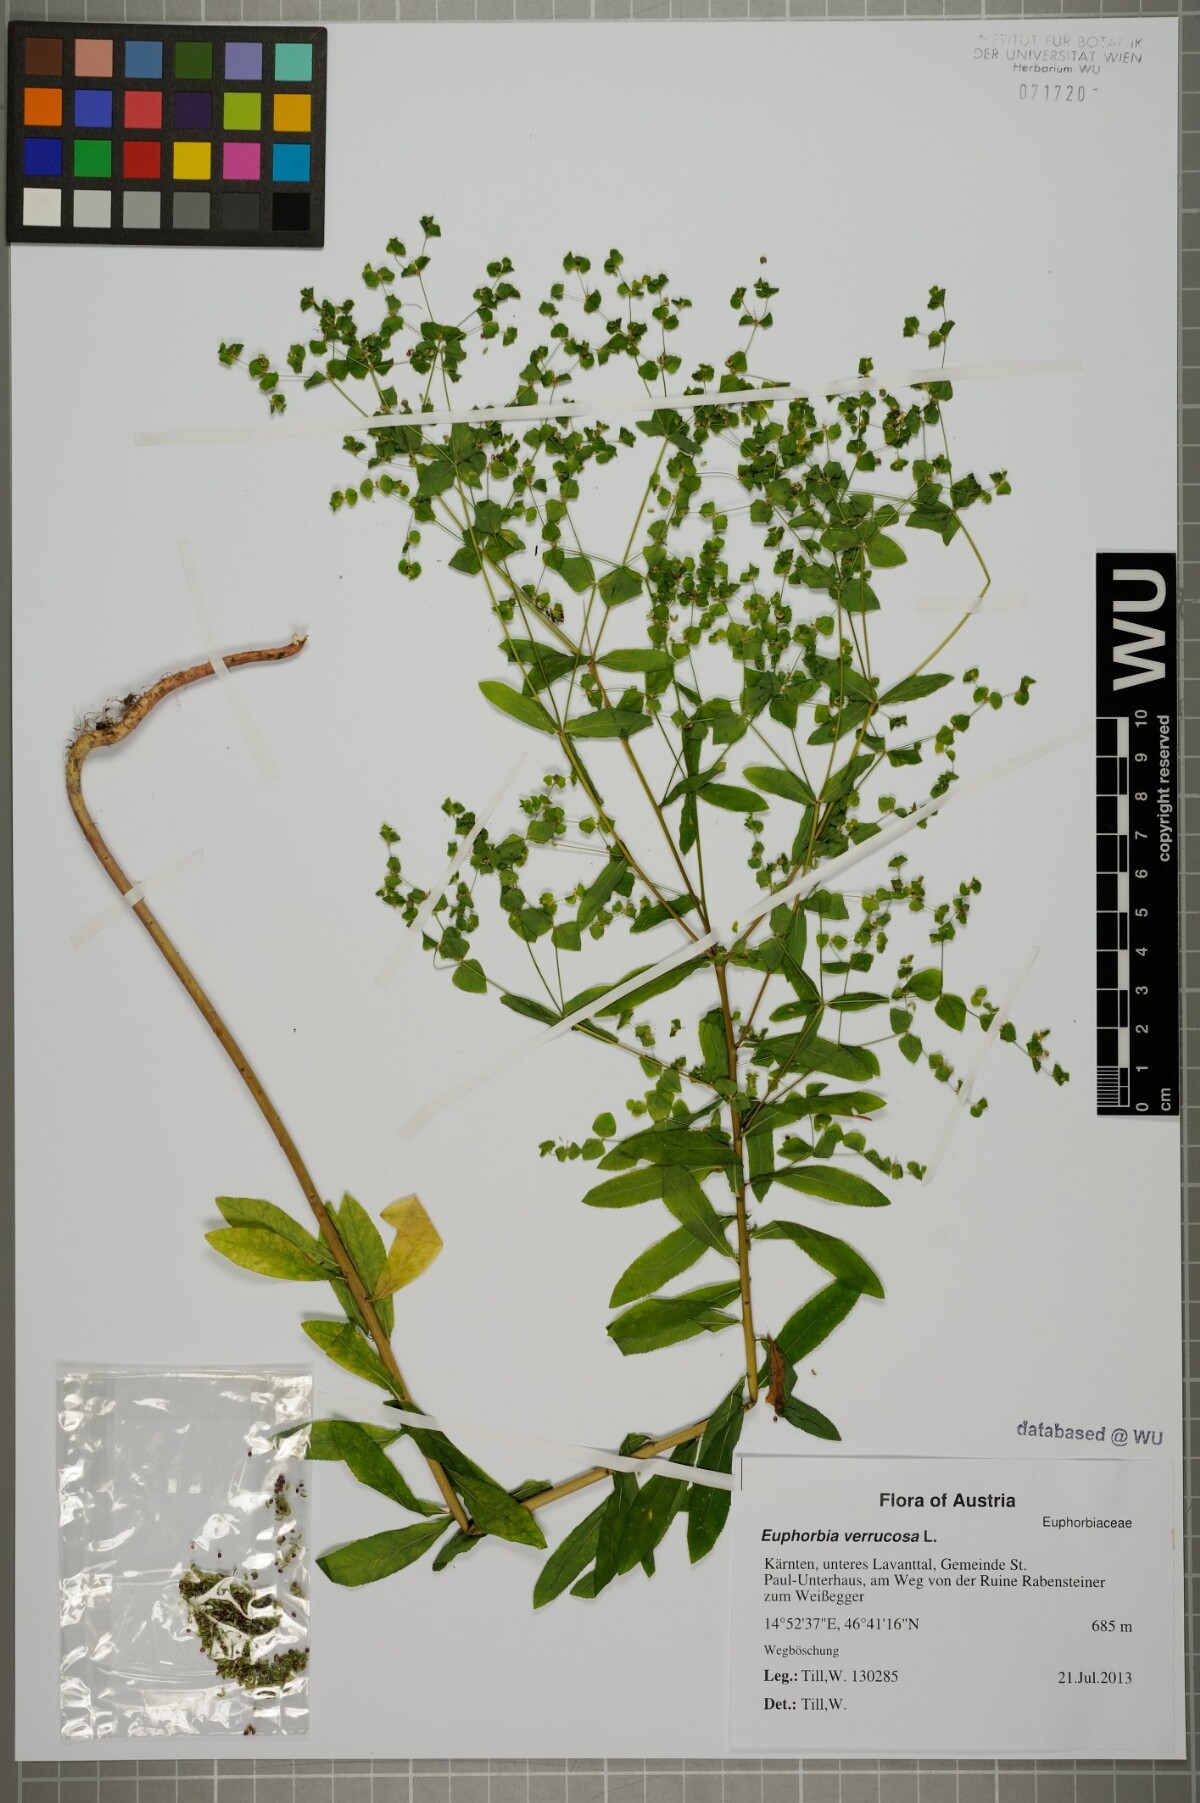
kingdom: Plantae
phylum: Tracheophyta
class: Magnoliopsida
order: Malpighiales
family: Euphorbiaceae
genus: Euphorbia
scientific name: Euphorbia stricta
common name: Upright spurge
